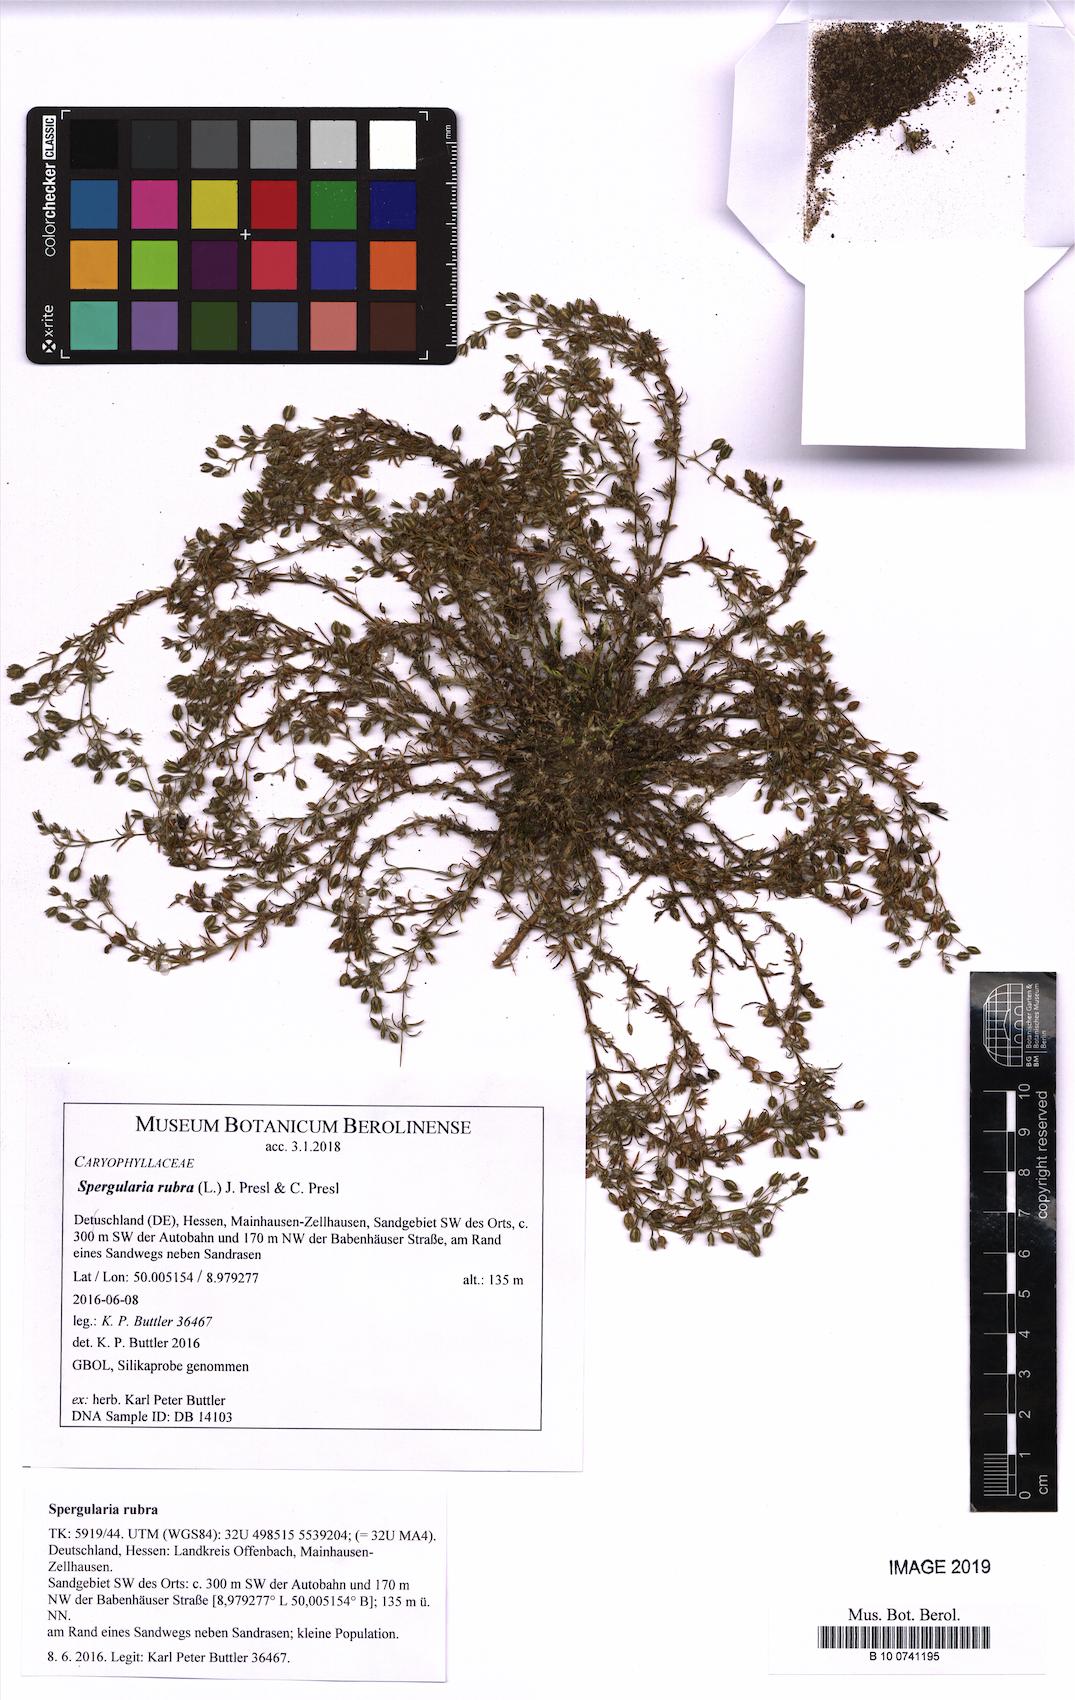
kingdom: Plantae
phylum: Tracheophyta
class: Magnoliopsida
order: Caryophyllales
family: Caryophyllaceae
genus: Spergularia
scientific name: Spergularia rubra
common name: Red sand-spurrey
